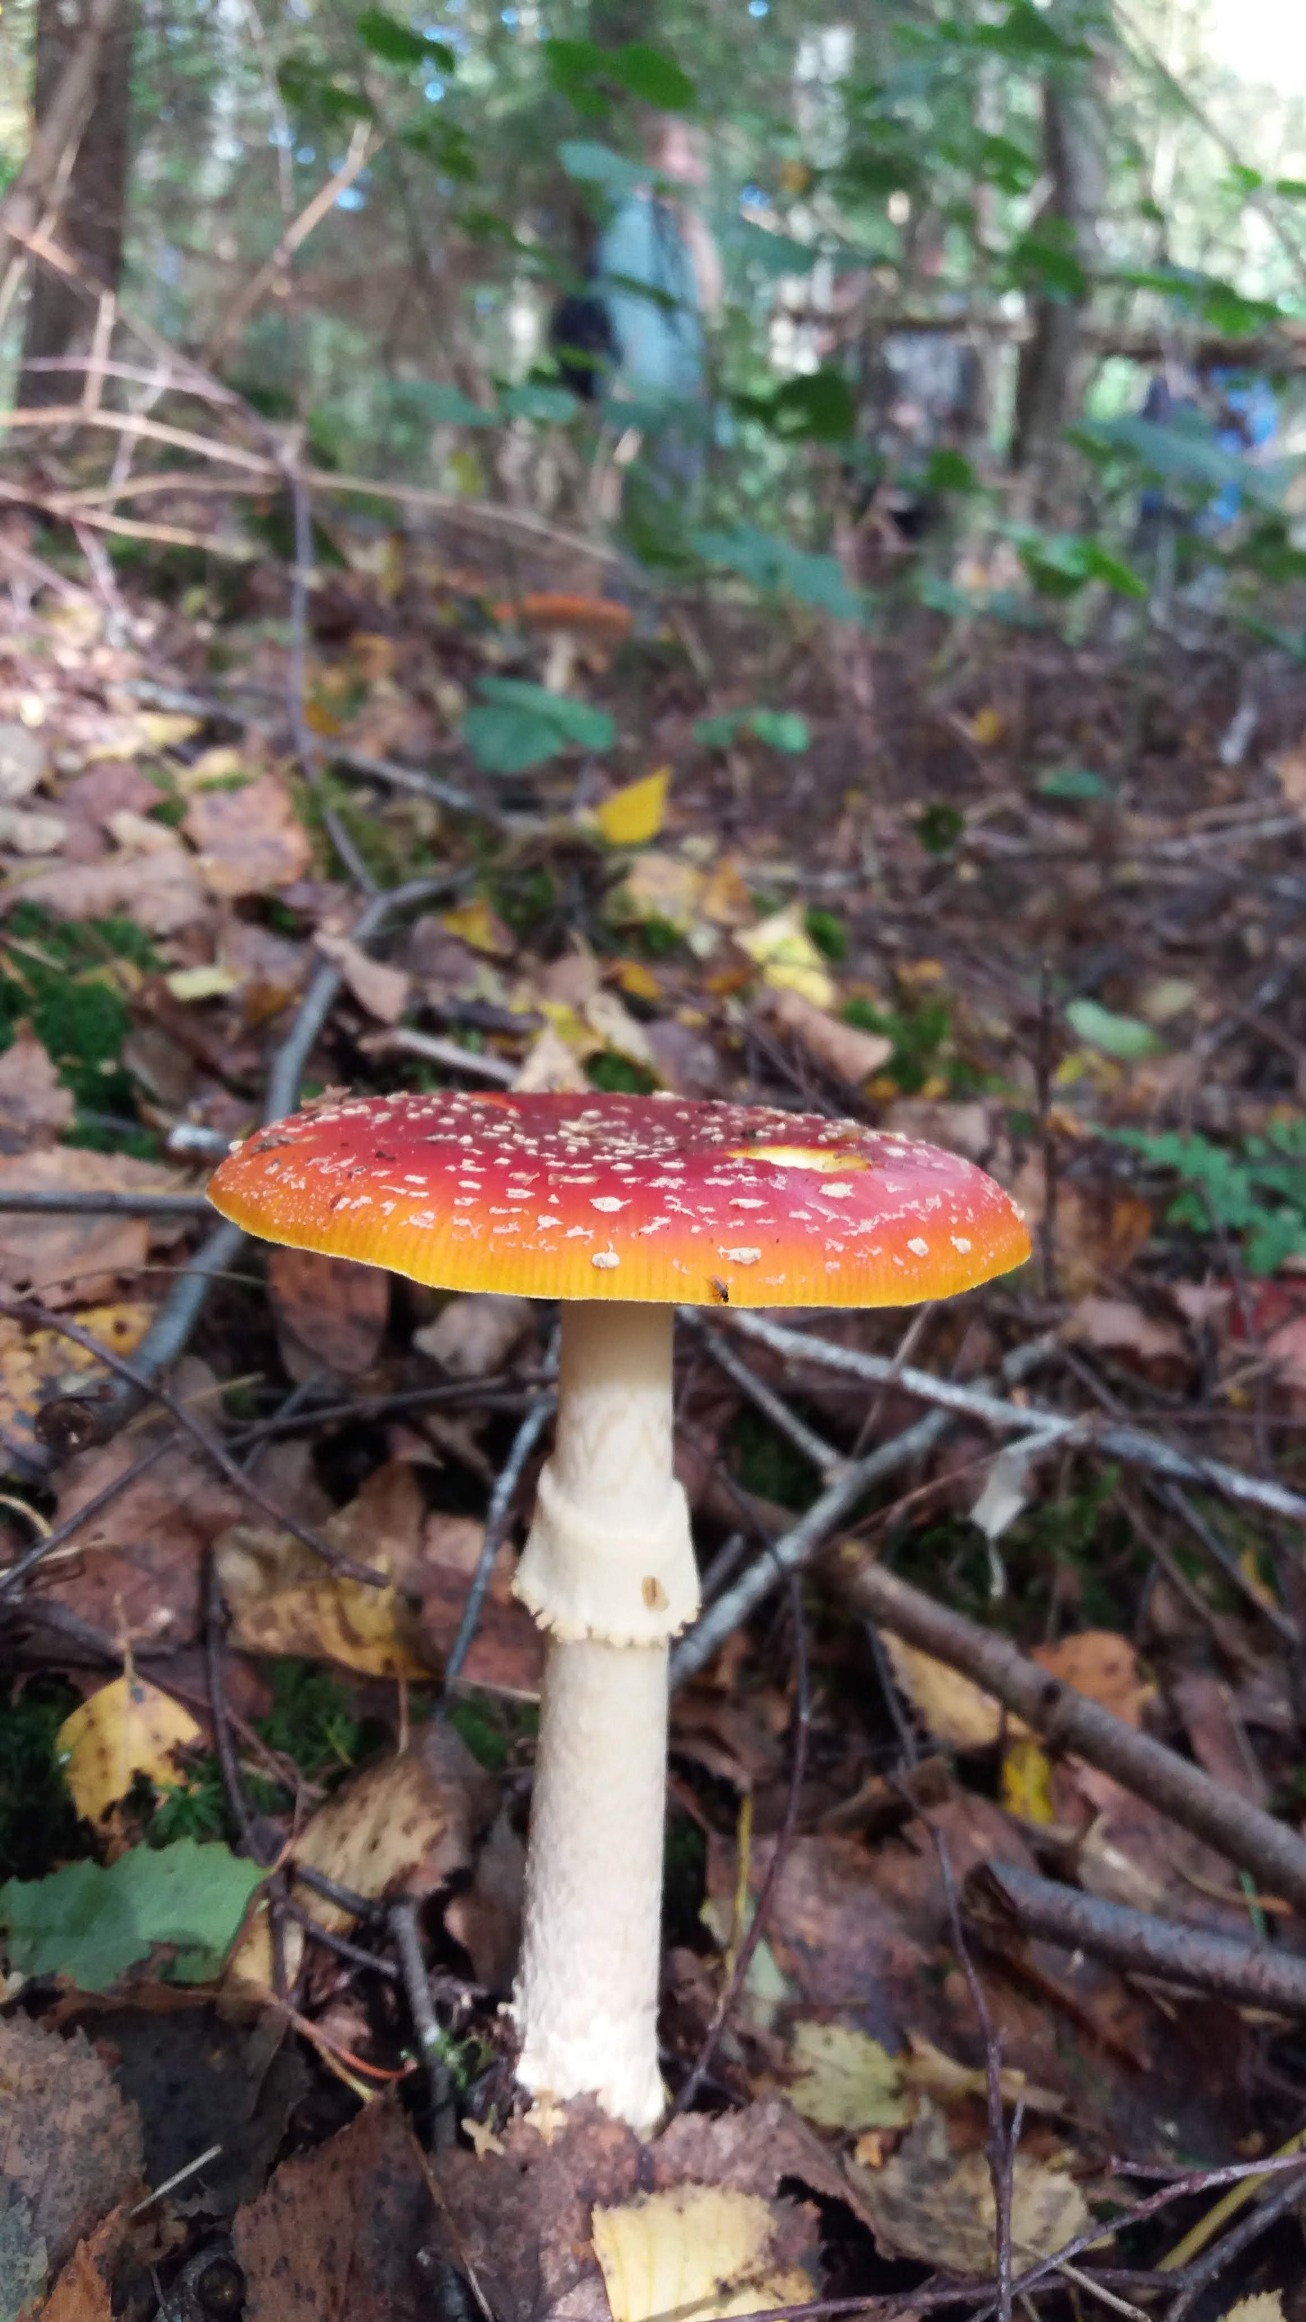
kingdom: Fungi
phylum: Basidiomycota
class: Agaricomycetes
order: Agaricales
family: Amanitaceae
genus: Amanita
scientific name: Amanita muscaria
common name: Rød fluesvamp
